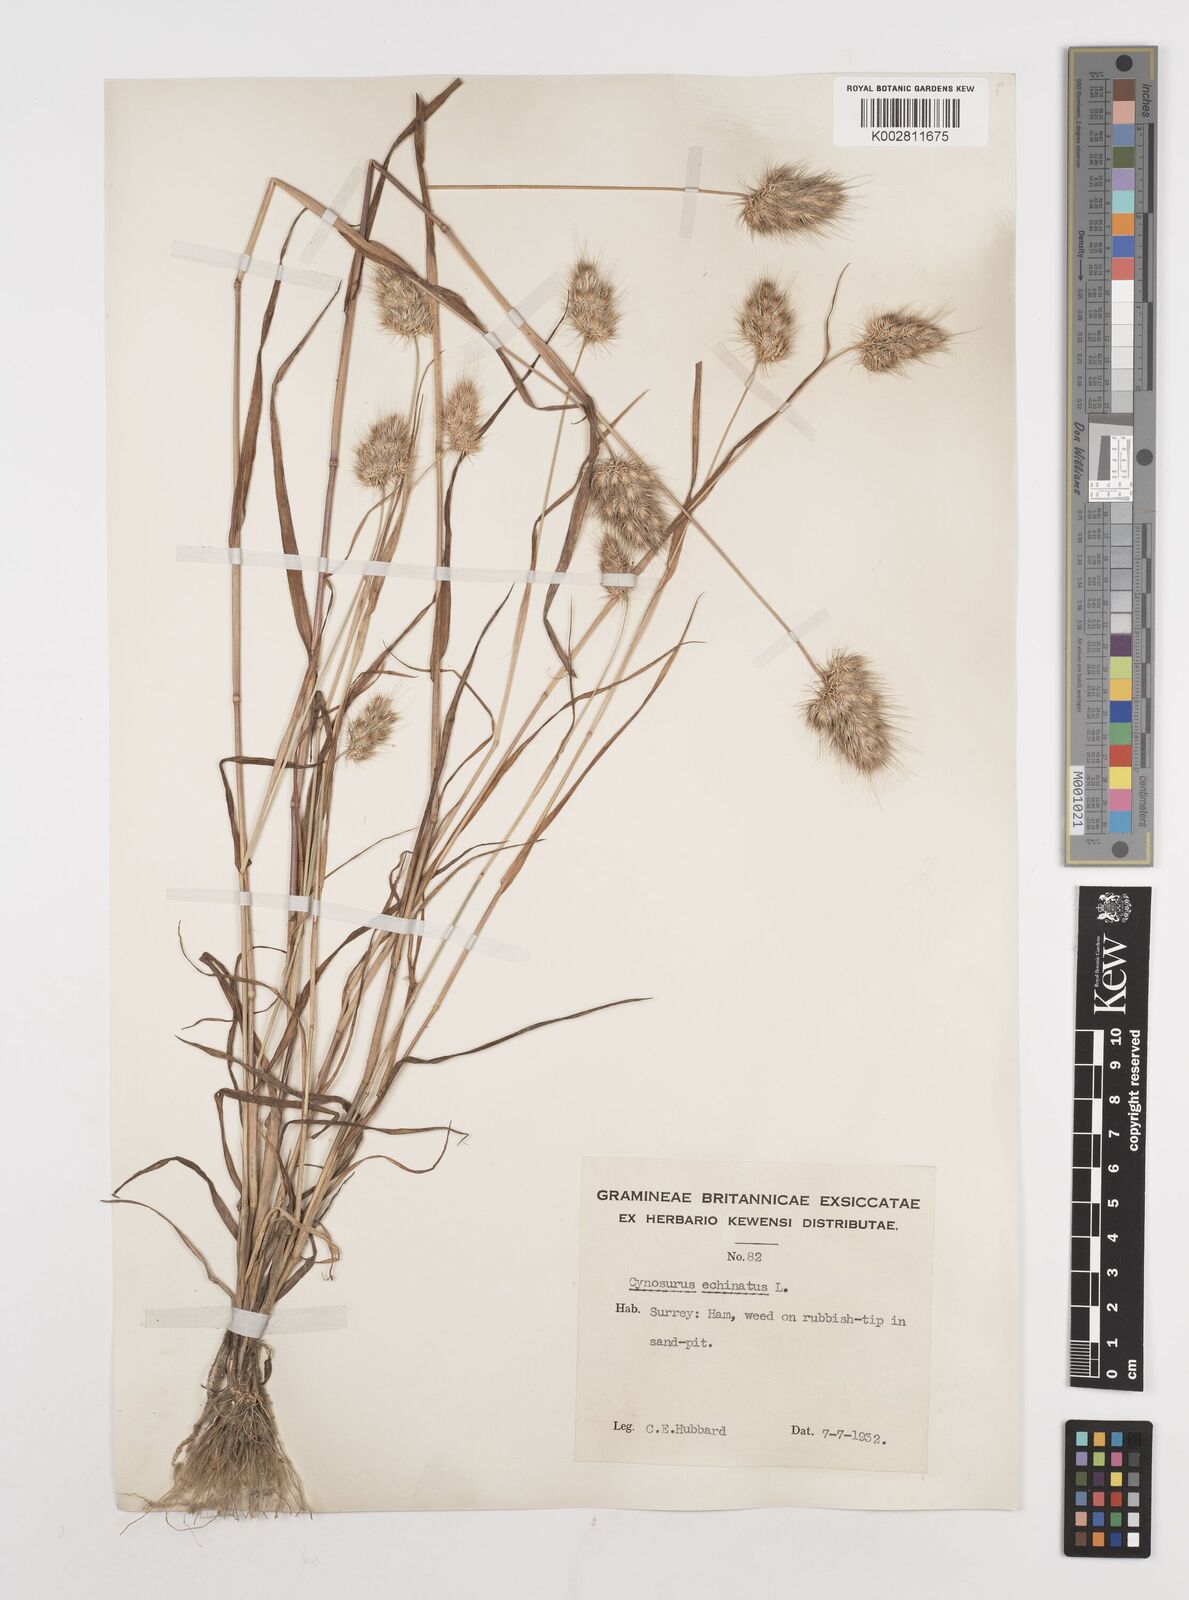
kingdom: Plantae
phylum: Tracheophyta
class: Liliopsida
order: Poales
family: Poaceae
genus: Cynosurus
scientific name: Cynosurus echinatus
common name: Rough dog's-tail
